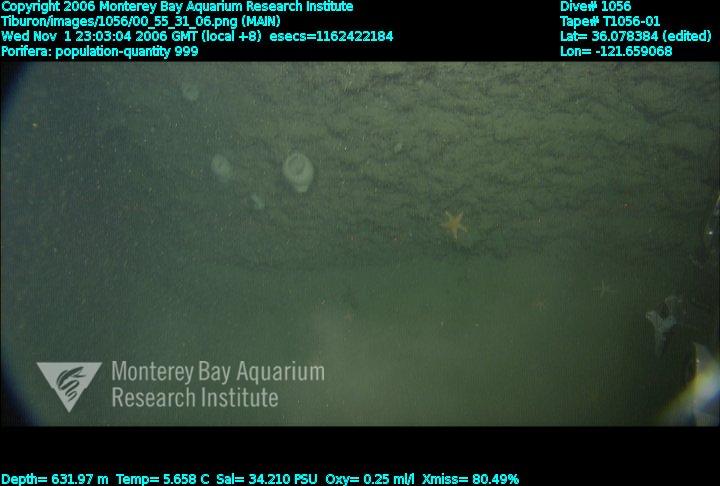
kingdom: Animalia
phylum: Porifera
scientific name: Porifera
